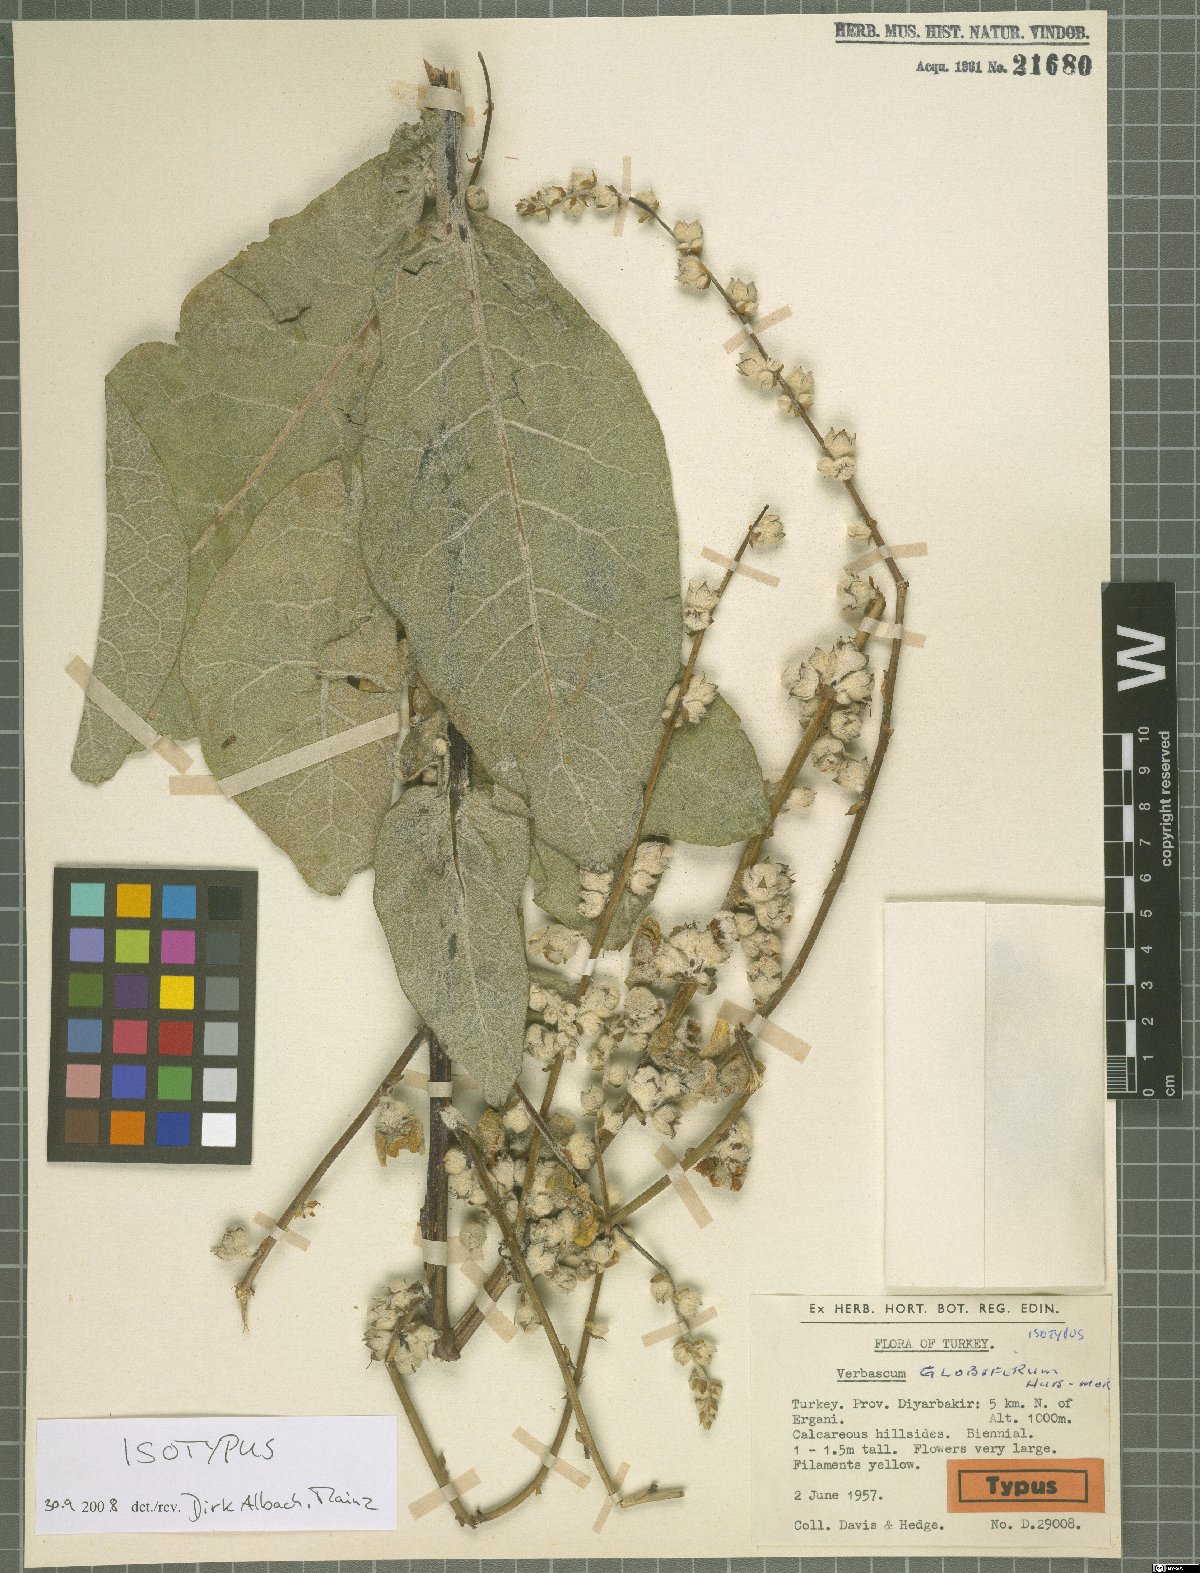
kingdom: Plantae
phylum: Tracheophyta
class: Magnoliopsida
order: Lamiales
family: Scrophulariaceae
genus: Verbascum
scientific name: Verbascum globiferum
